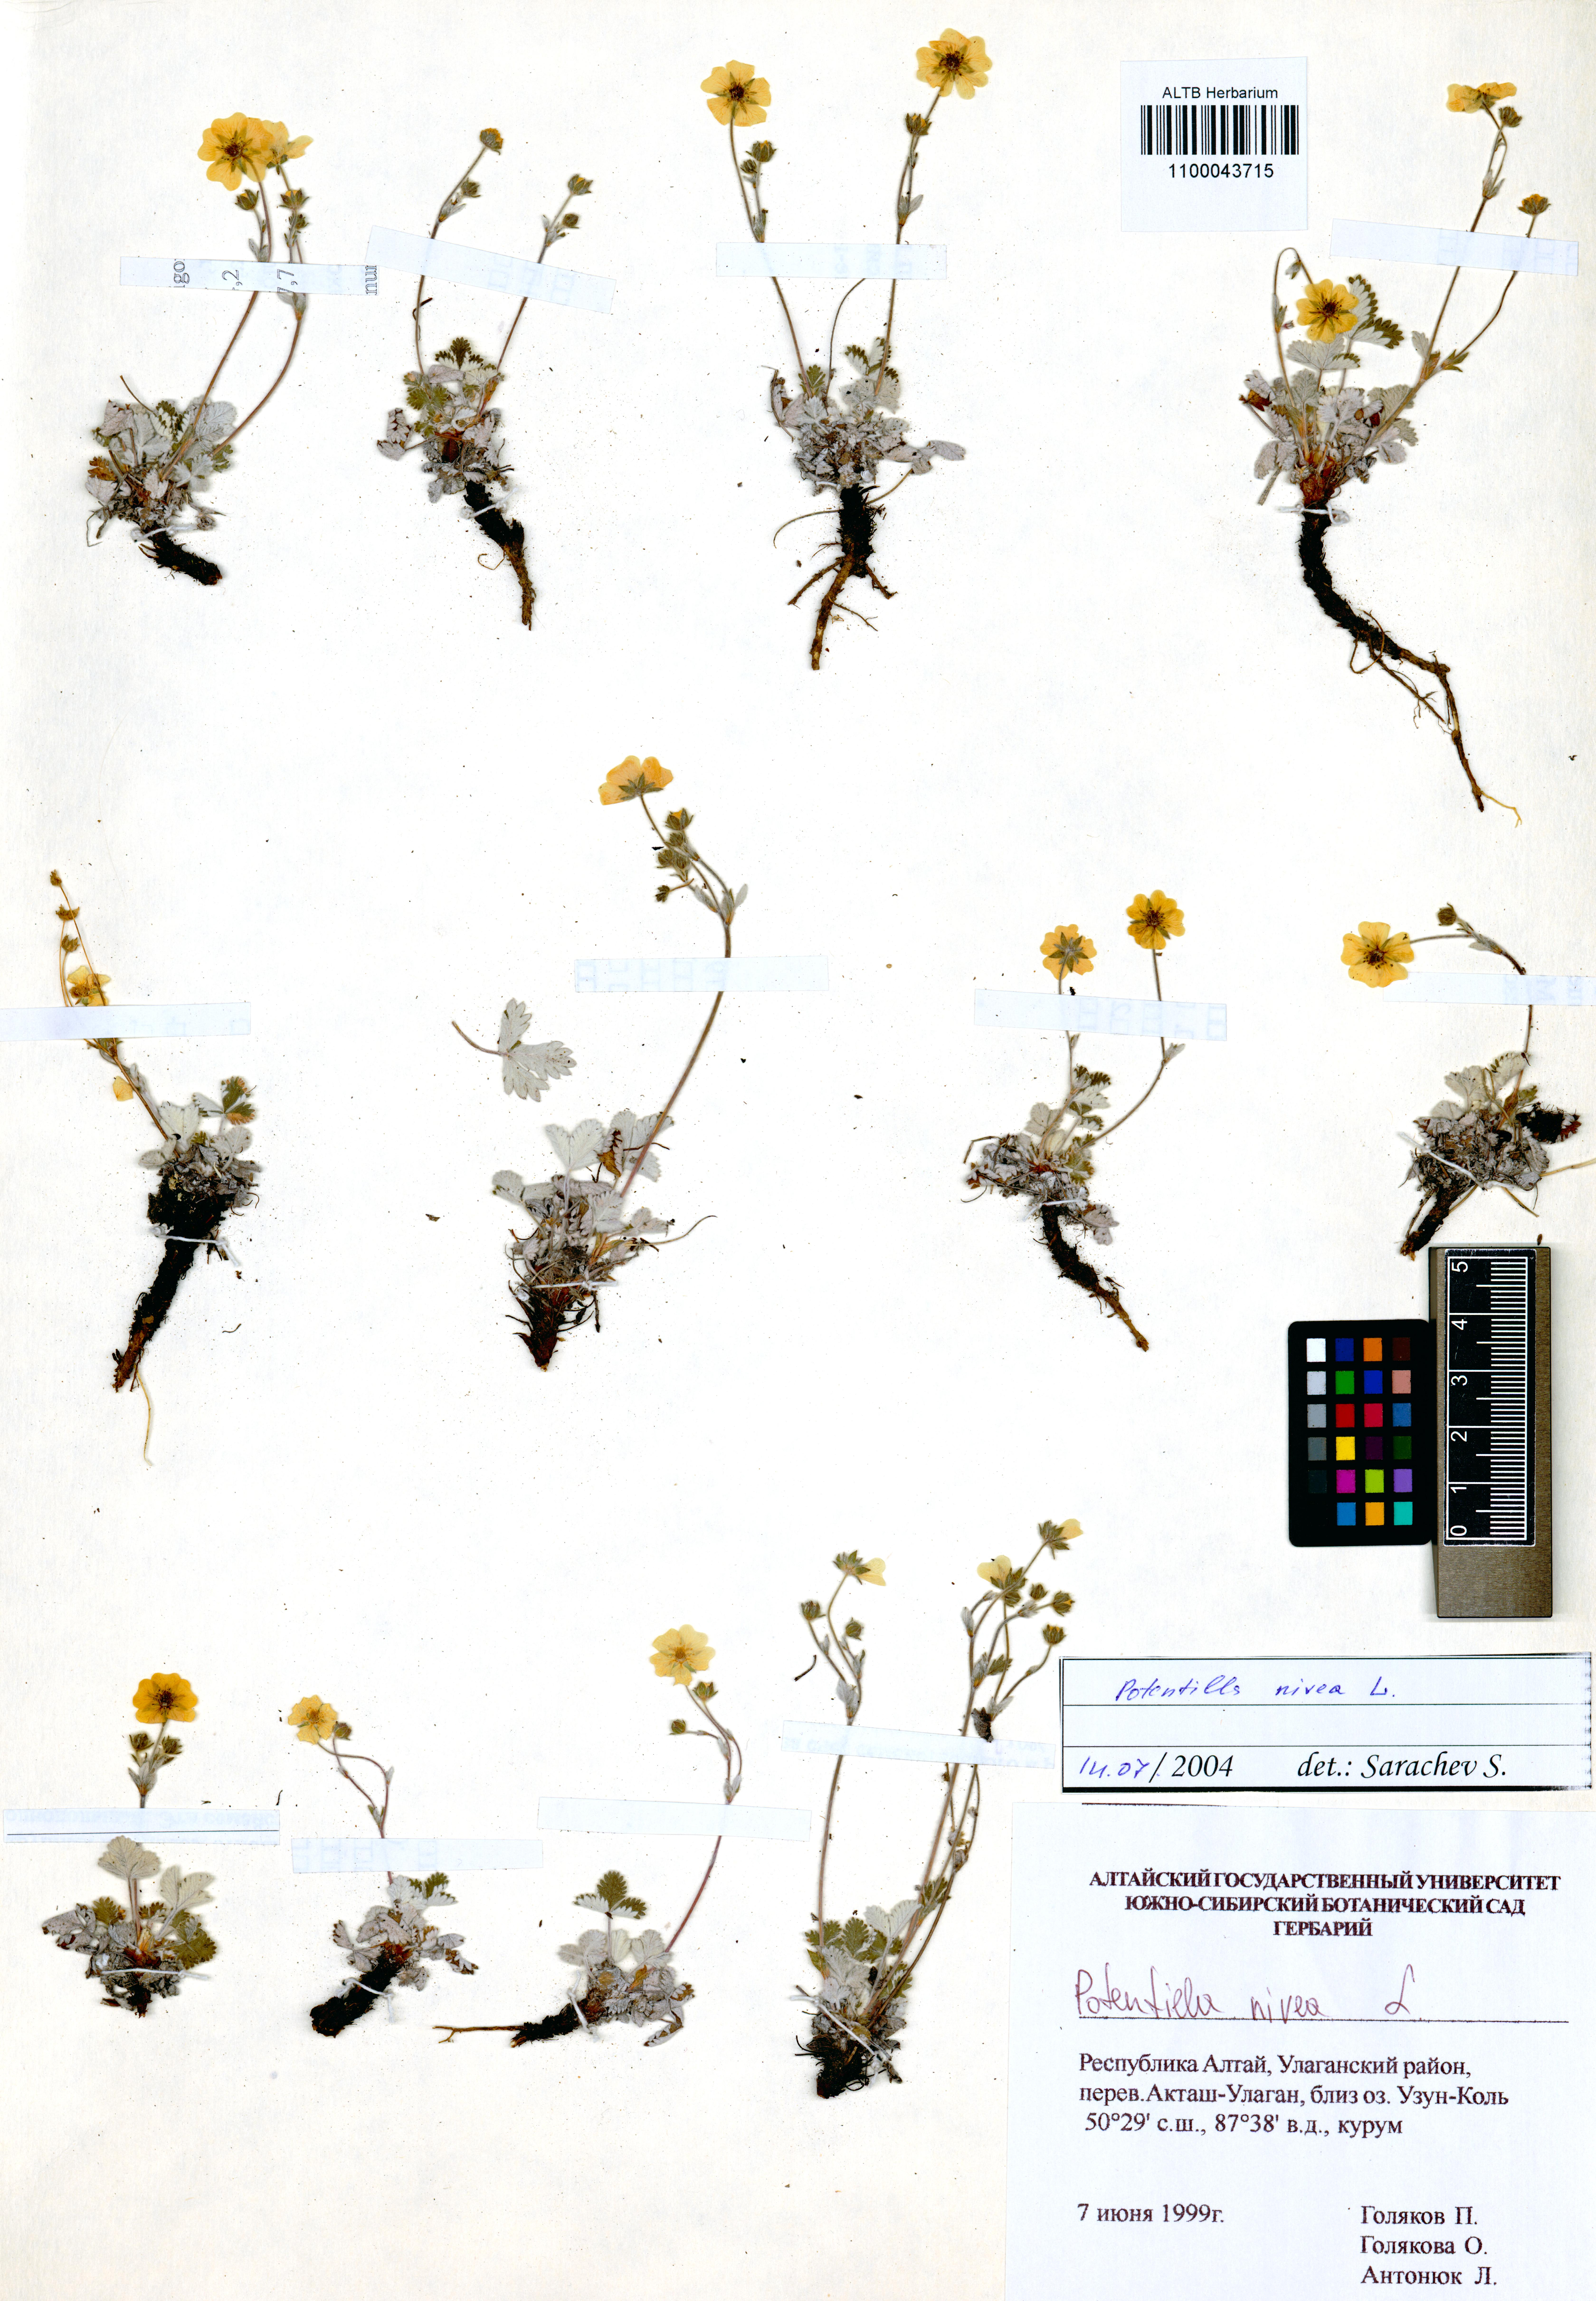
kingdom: Plantae
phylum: Tracheophyta
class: Magnoliopsida
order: Rosales
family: Rosaceae
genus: Potentilla
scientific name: Potentilla nivea
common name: Snow cinquefoil
